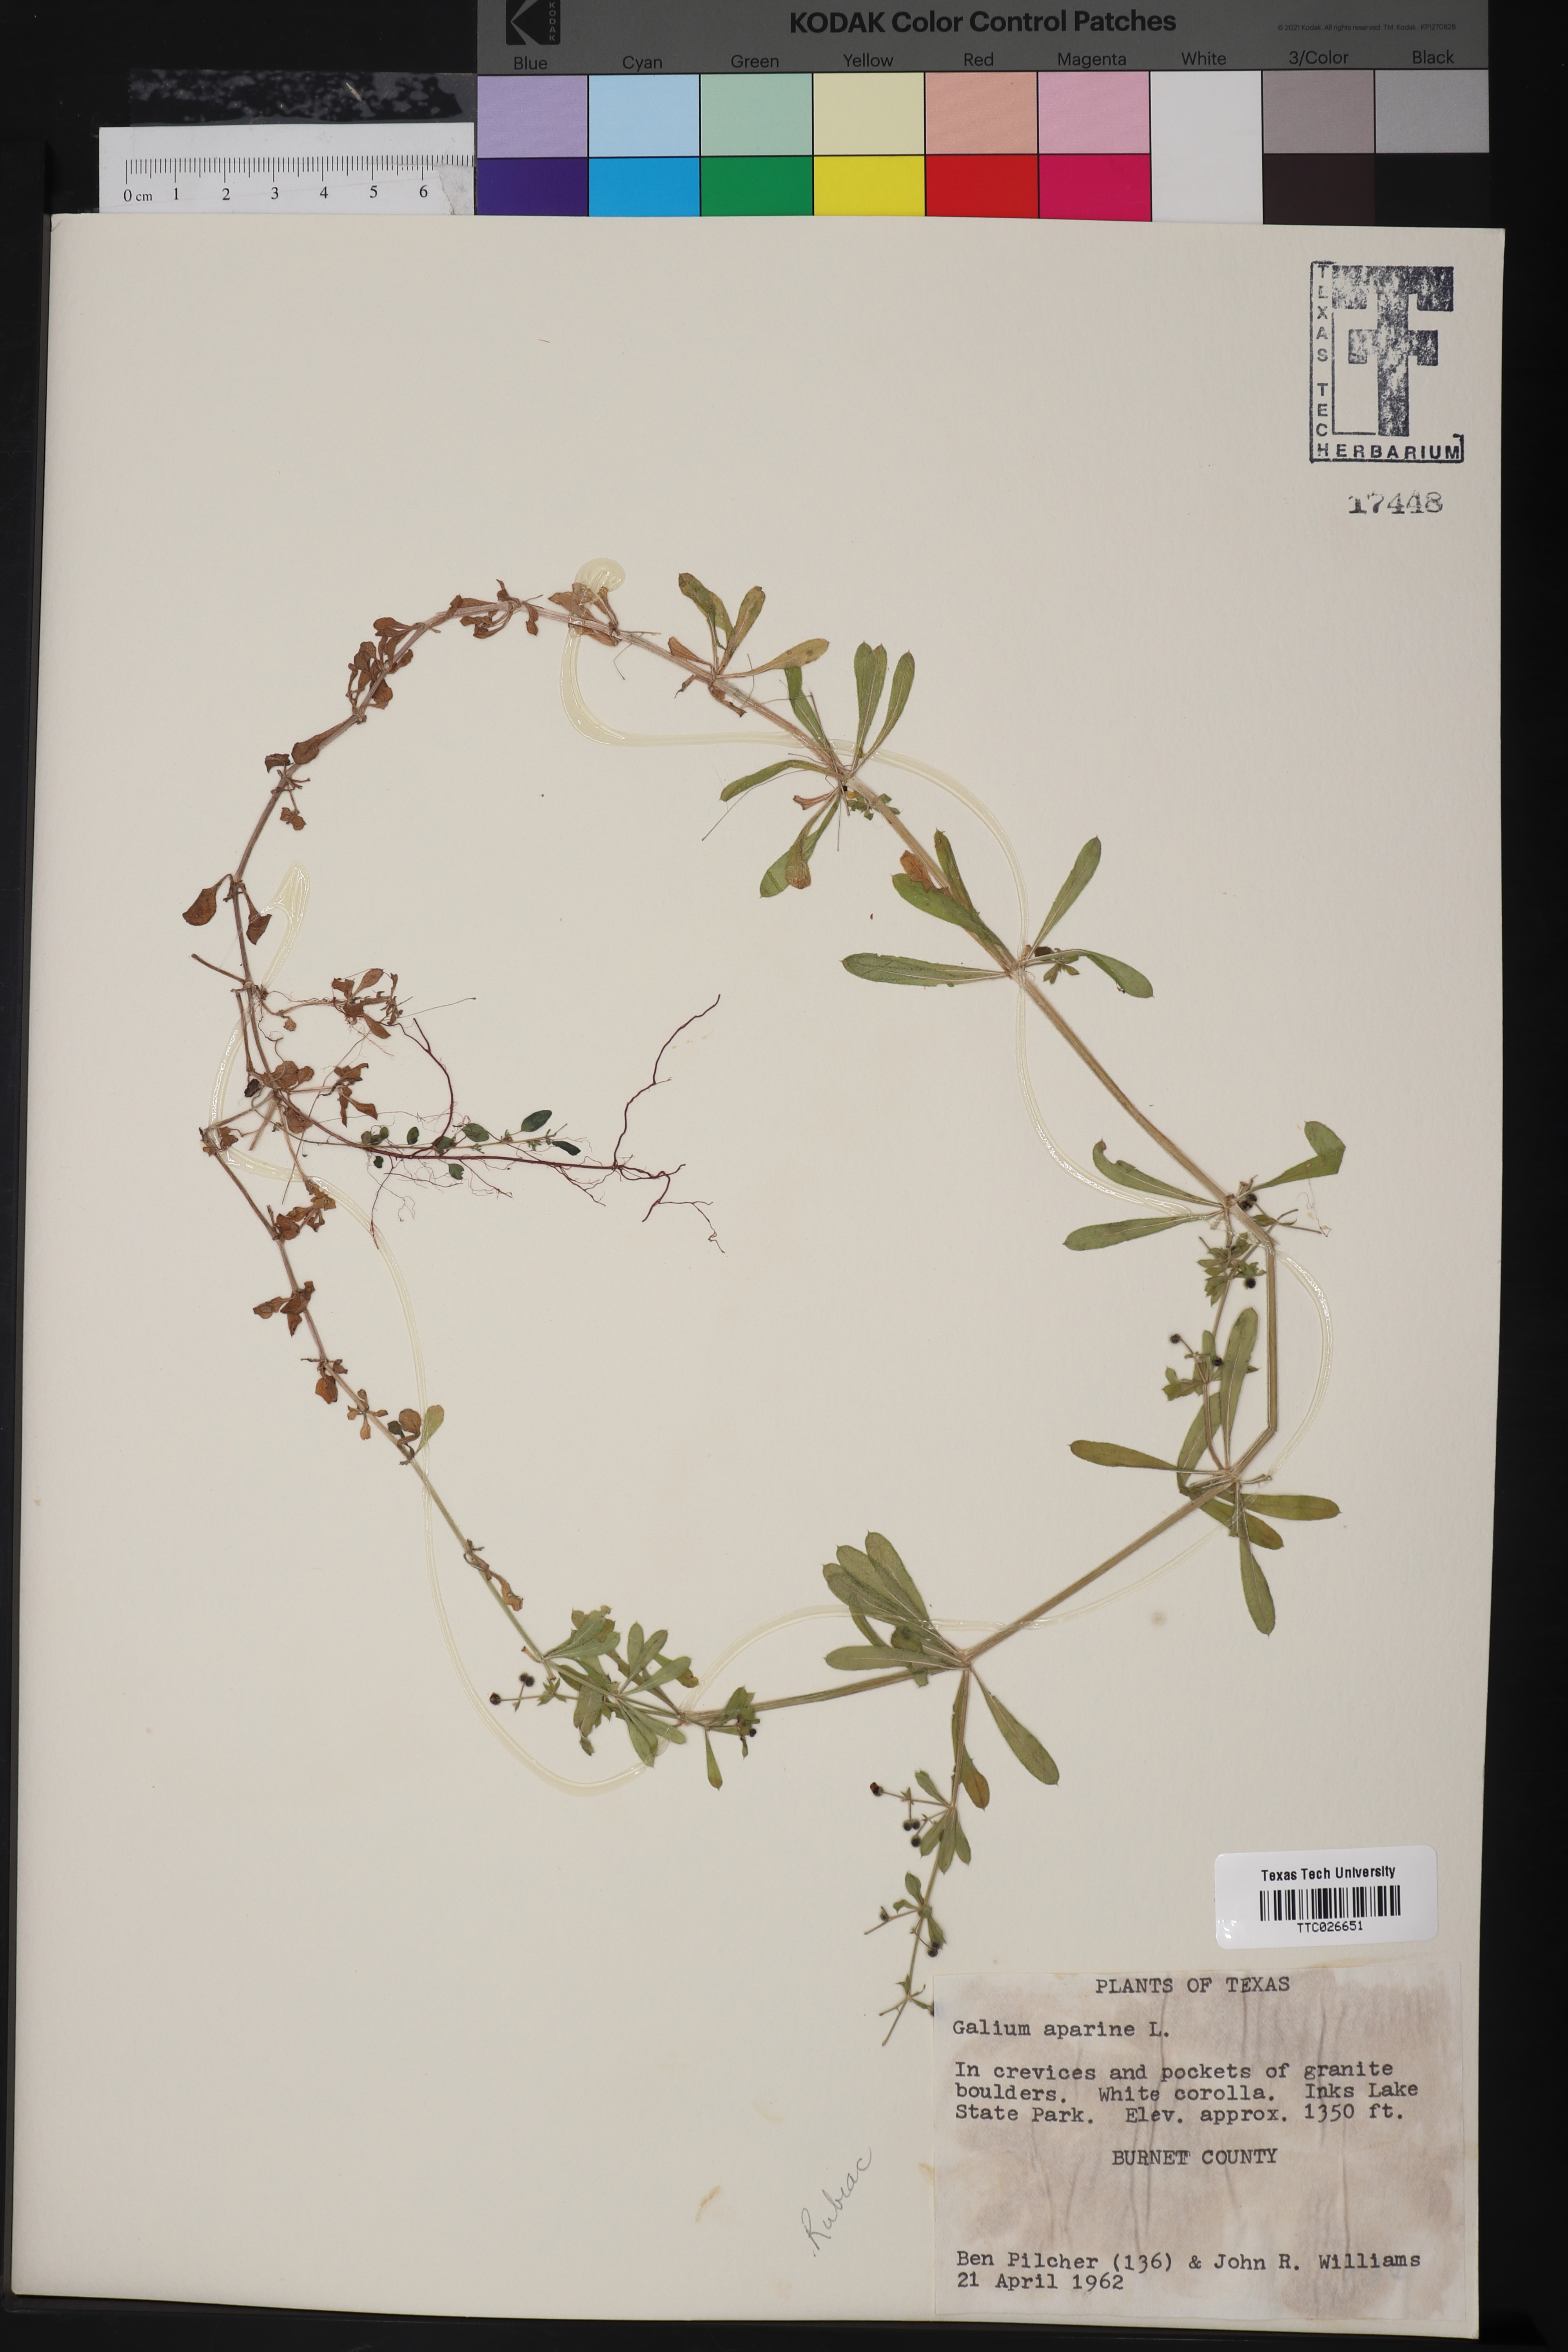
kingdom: Plantae
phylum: Tracheophyta
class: Magnoliopsida
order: Gentianales
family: Rubiaceae
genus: Galium
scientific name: Galium aparine
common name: Cleavers
